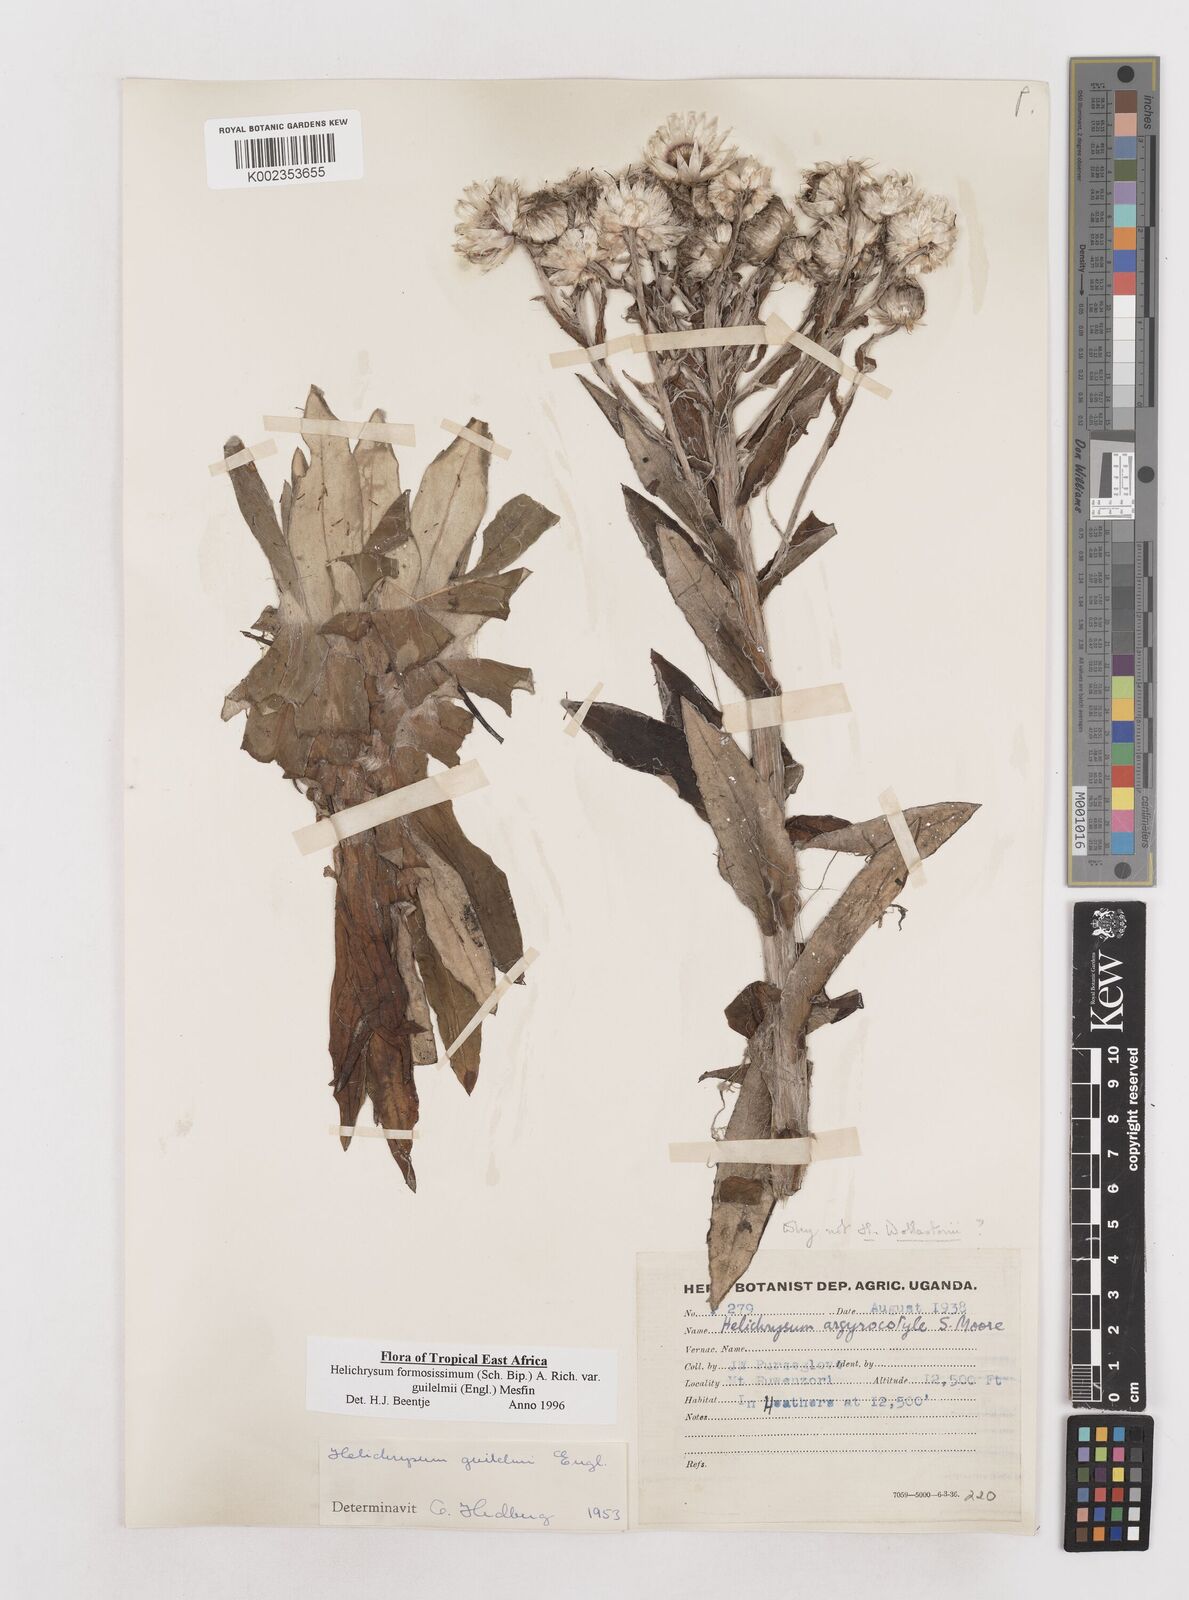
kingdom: Plantae
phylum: Tracheophyta
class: Magnoliopsida
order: Asterales
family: Asteraceae
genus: Helichrysum
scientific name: Helichrysum formosissimum
